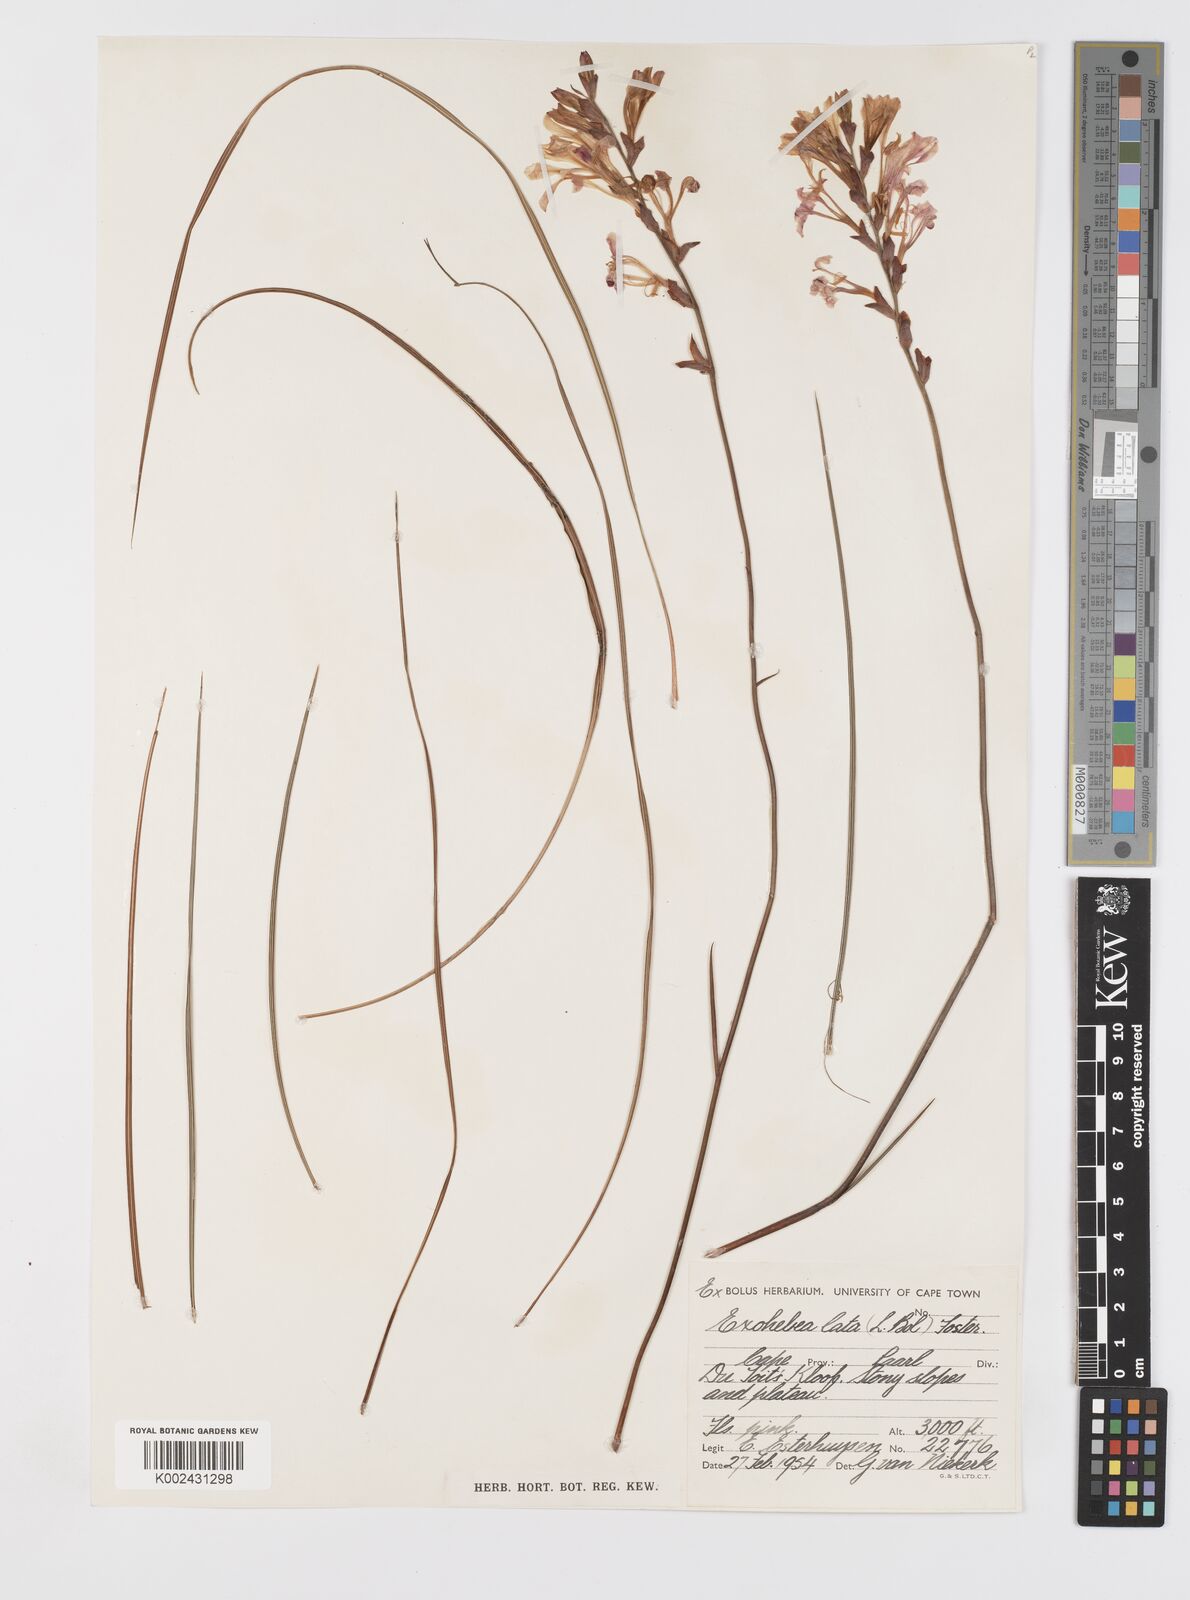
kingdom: Plantae
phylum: Tracheophyta
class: Liliopsida
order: Asparagales
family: Iridaceae
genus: Tritoniopsis
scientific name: Tritoniopsis lata
